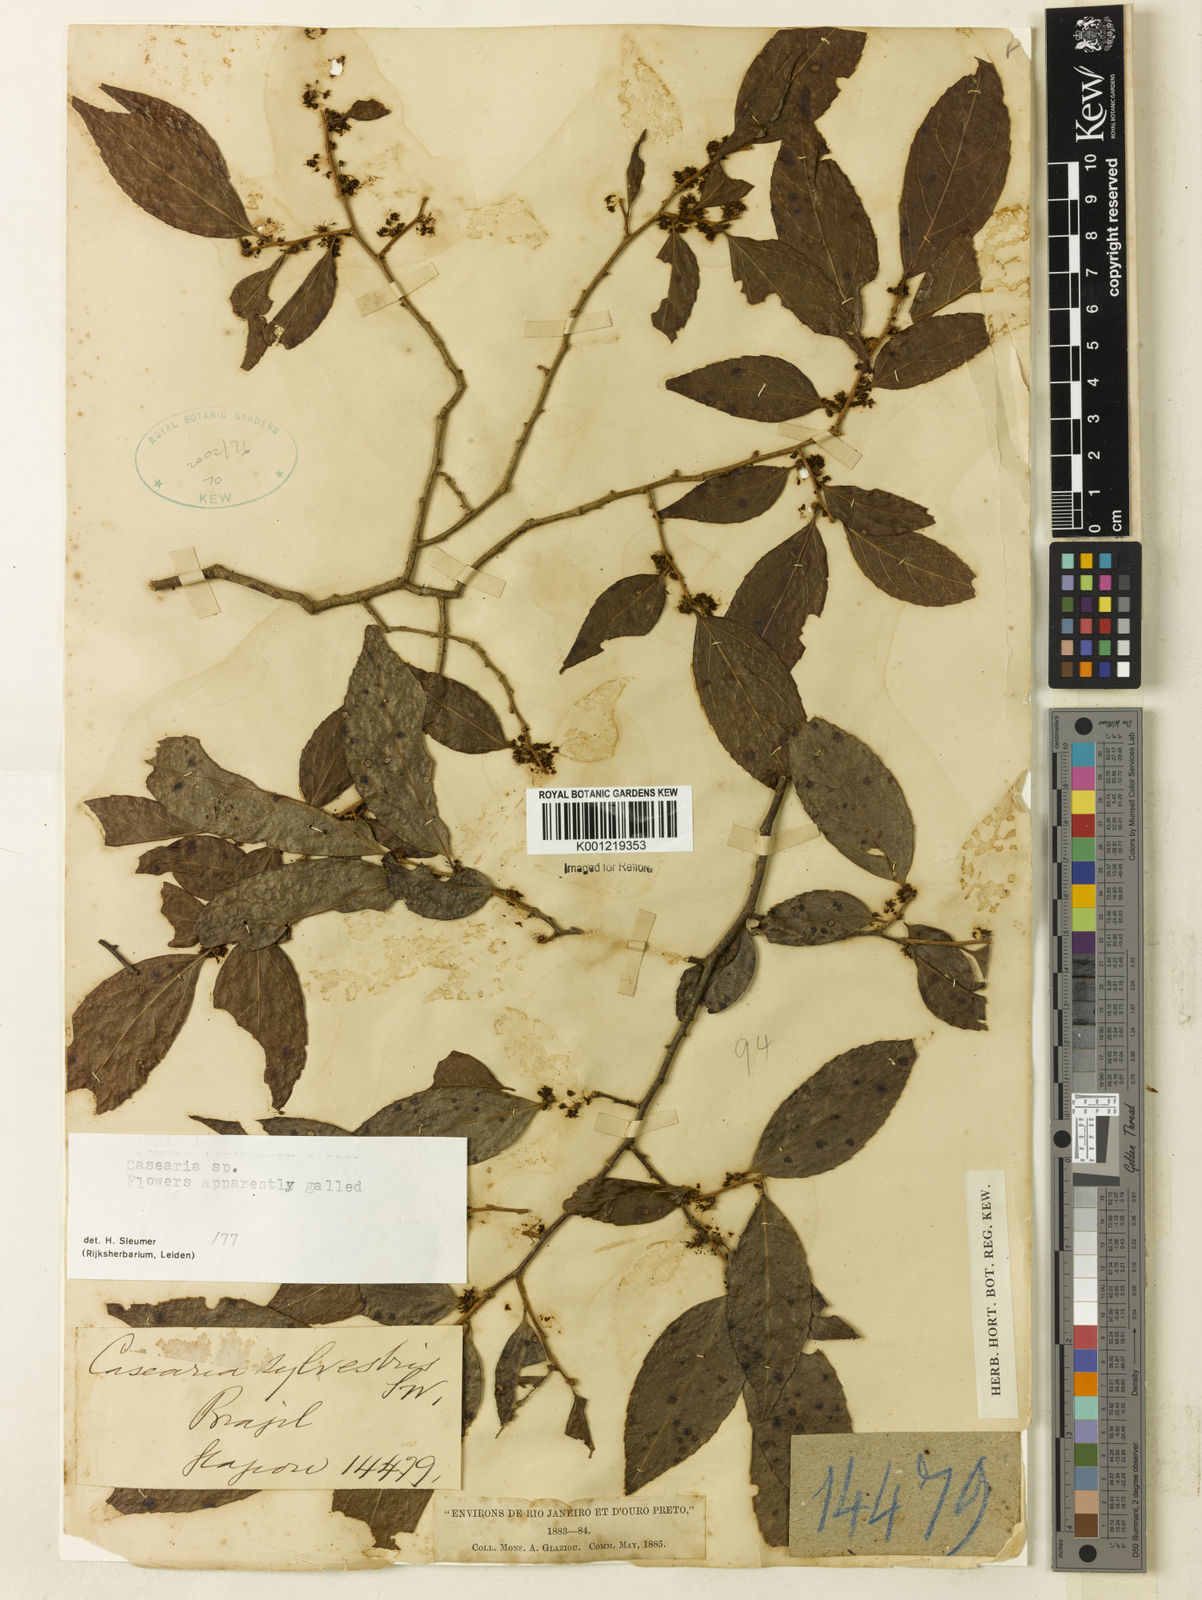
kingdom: Plantae
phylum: Tracheophyta
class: Magnoliopsida
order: Malpighiales
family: Salicaceae
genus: Casearia
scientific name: Casearia
